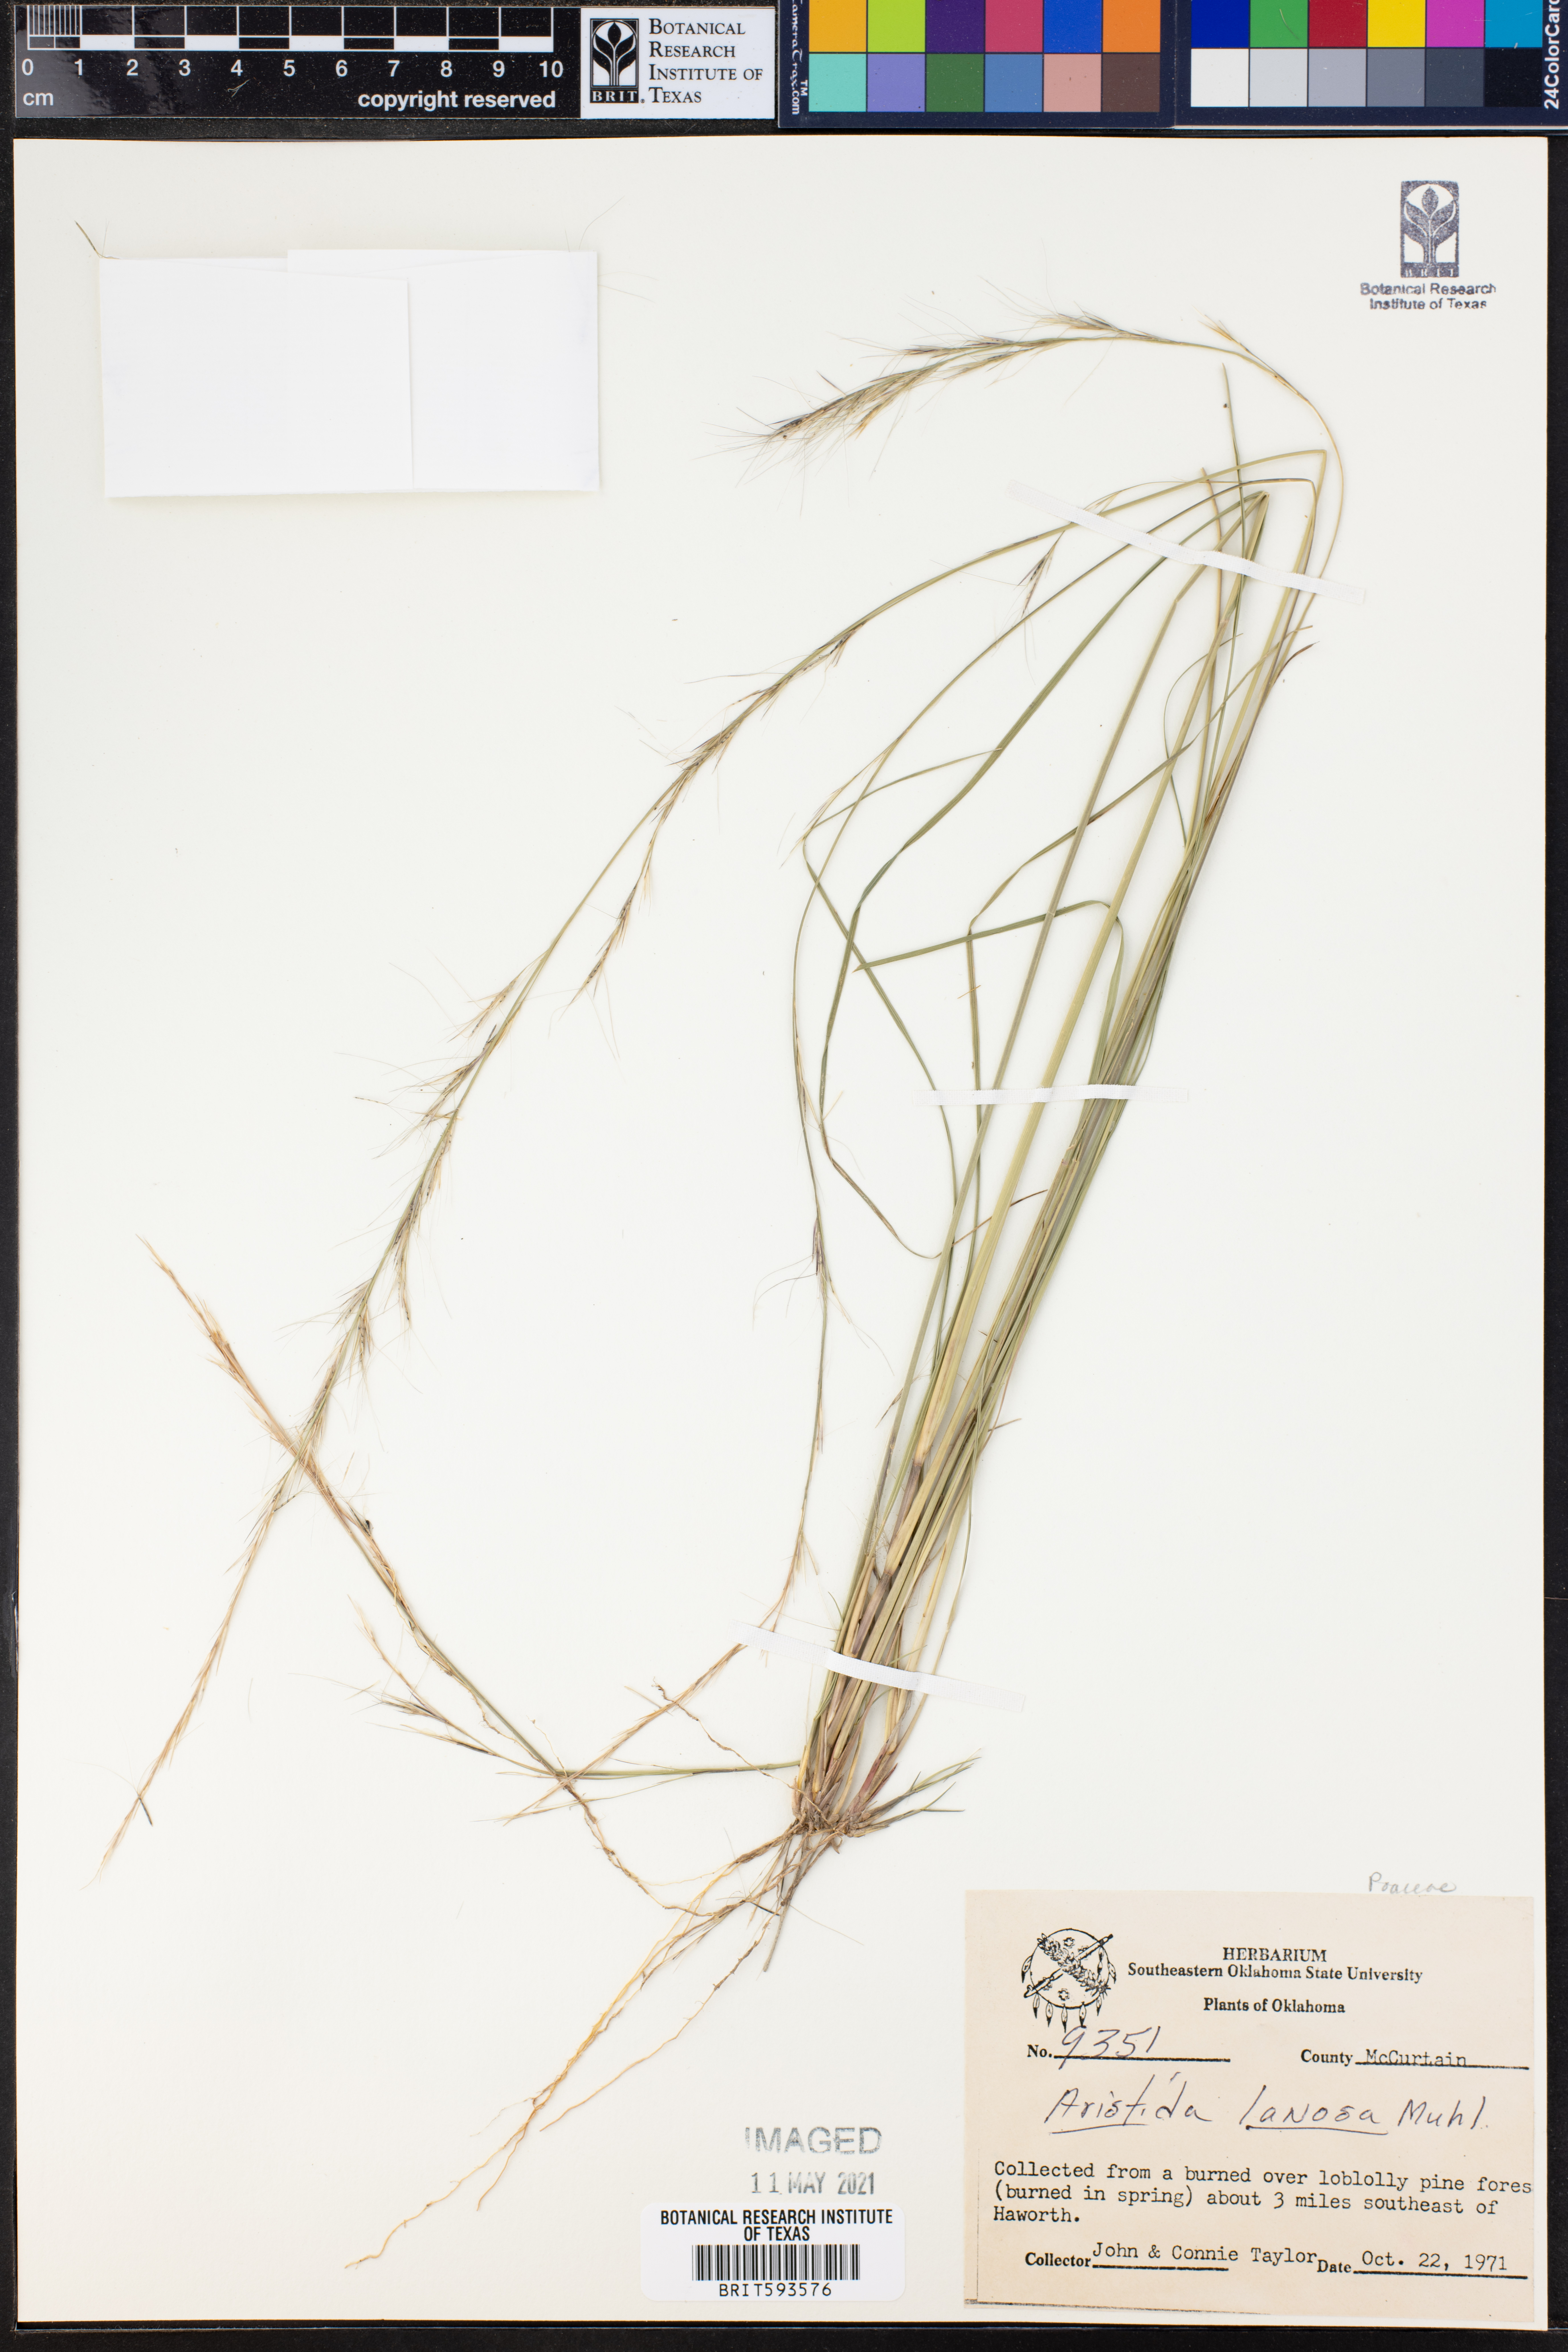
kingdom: Plantae
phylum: Tracheophyta
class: Liliopsida
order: Poales
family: Poaceae
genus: Aristida
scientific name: Aristida lanosa
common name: Woolly three-awn
